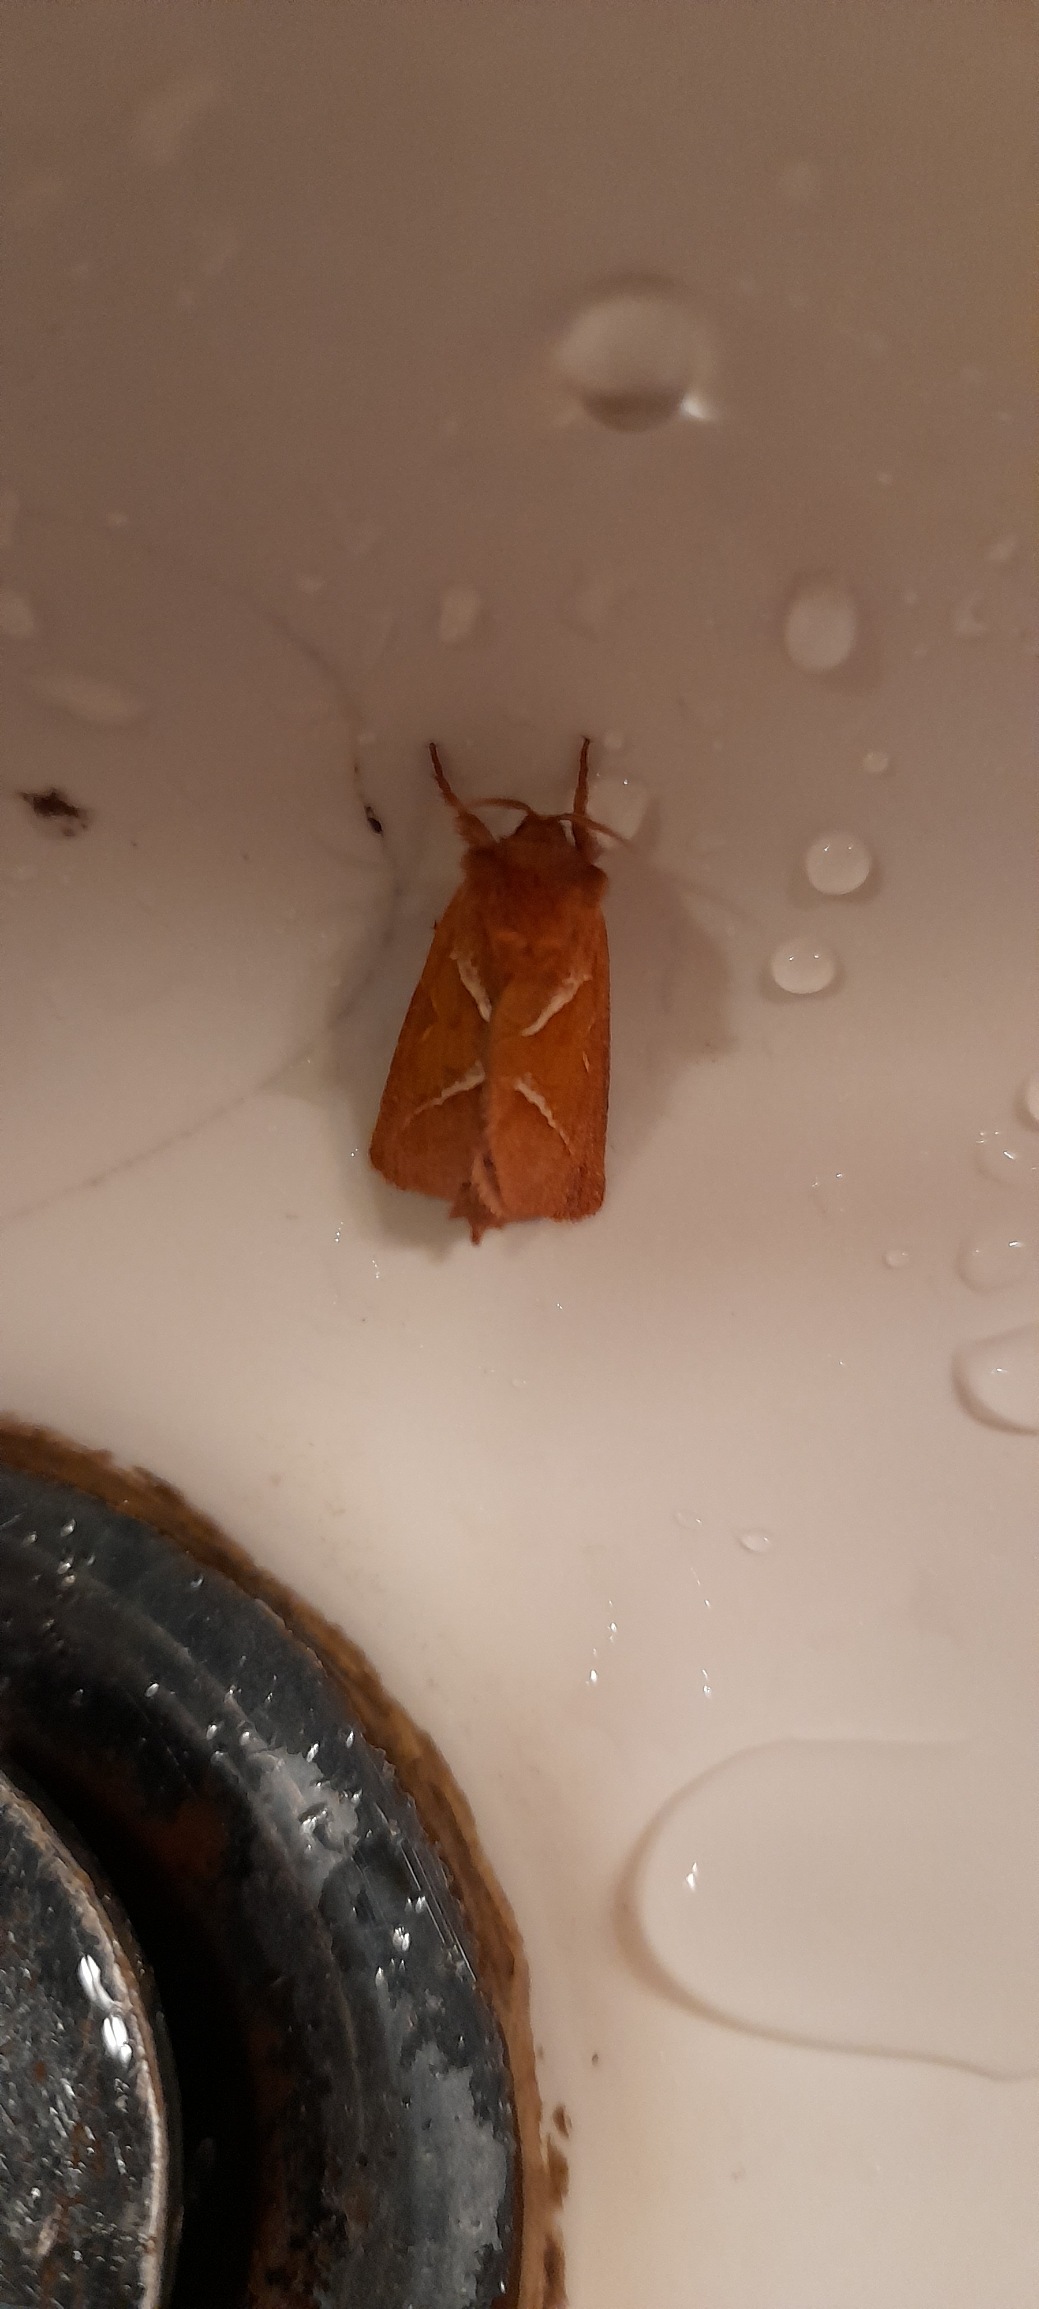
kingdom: Animalia
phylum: Arthropoda
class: Insecta
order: Lepidoptera
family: Hepialidae
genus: Triodia
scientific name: Triodia sylvina
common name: Skræpperodæder
